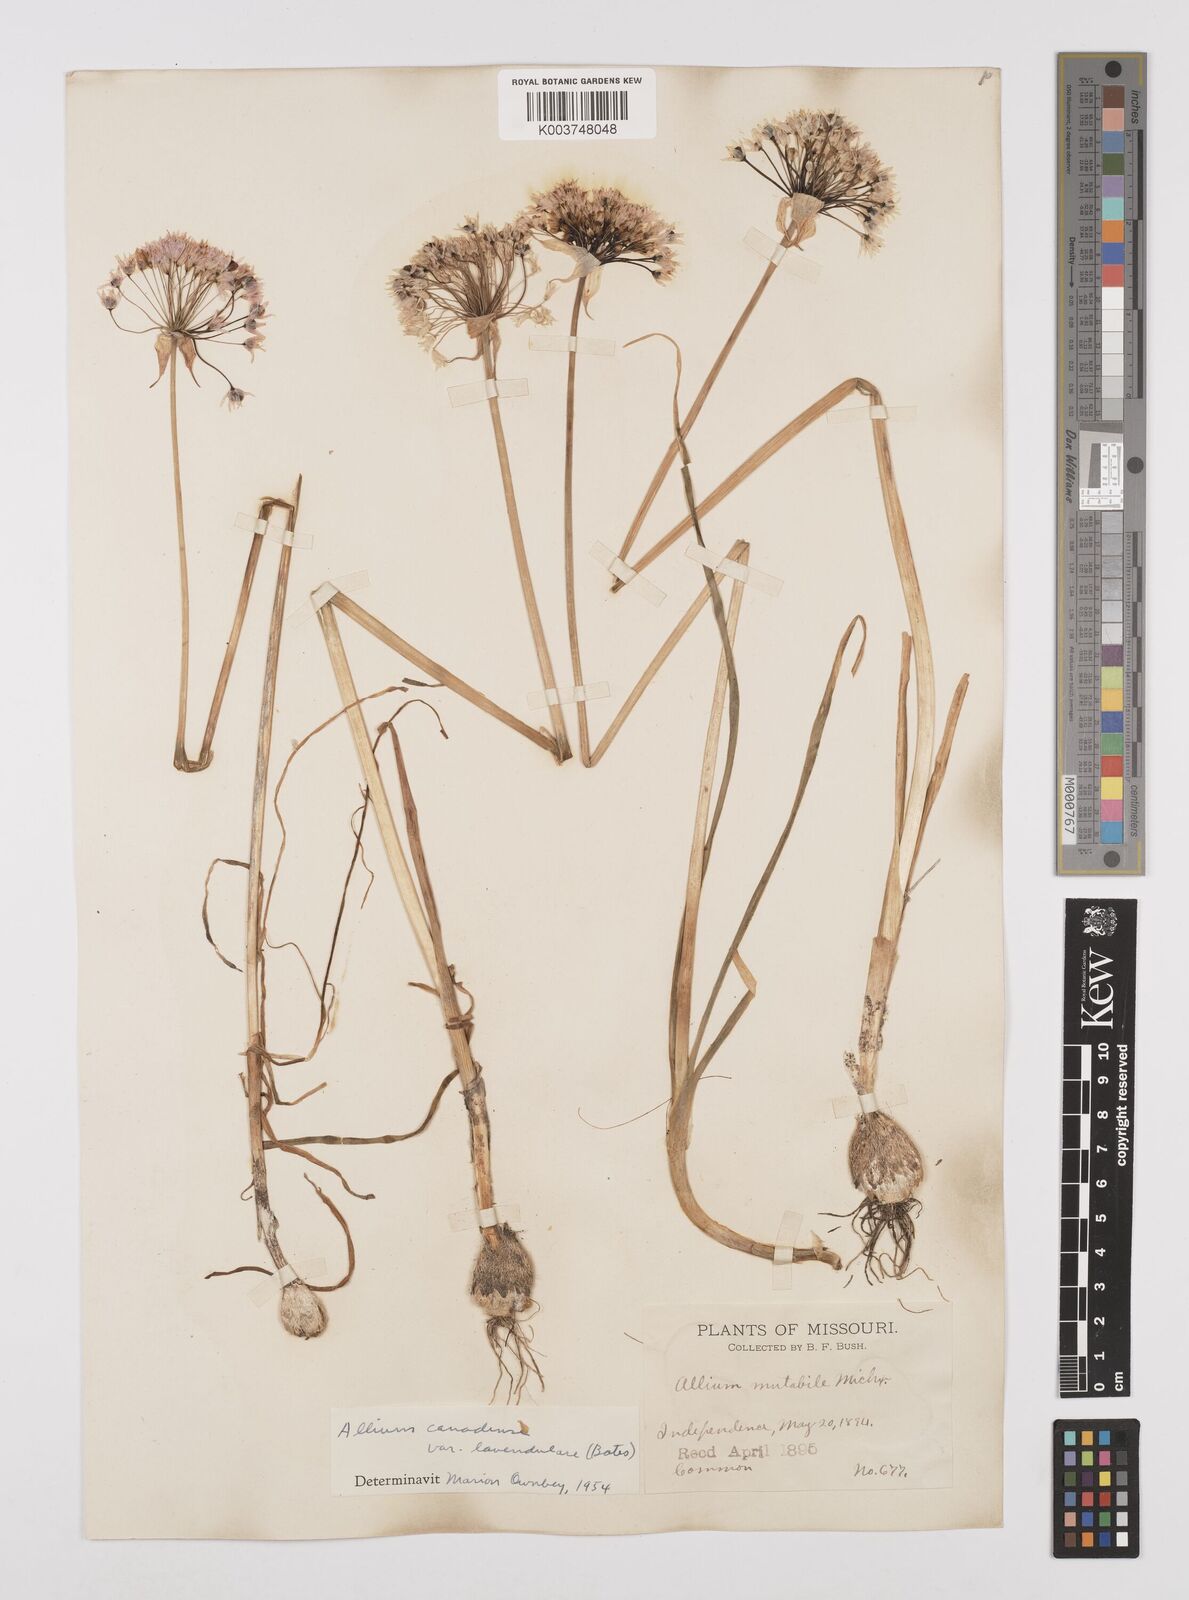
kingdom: Plantae
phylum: Tracheophyta
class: Liliopsida
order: Asparagales
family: Amaryllidaceae
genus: Allium
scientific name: Allium canadense
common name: Meadow garlic
